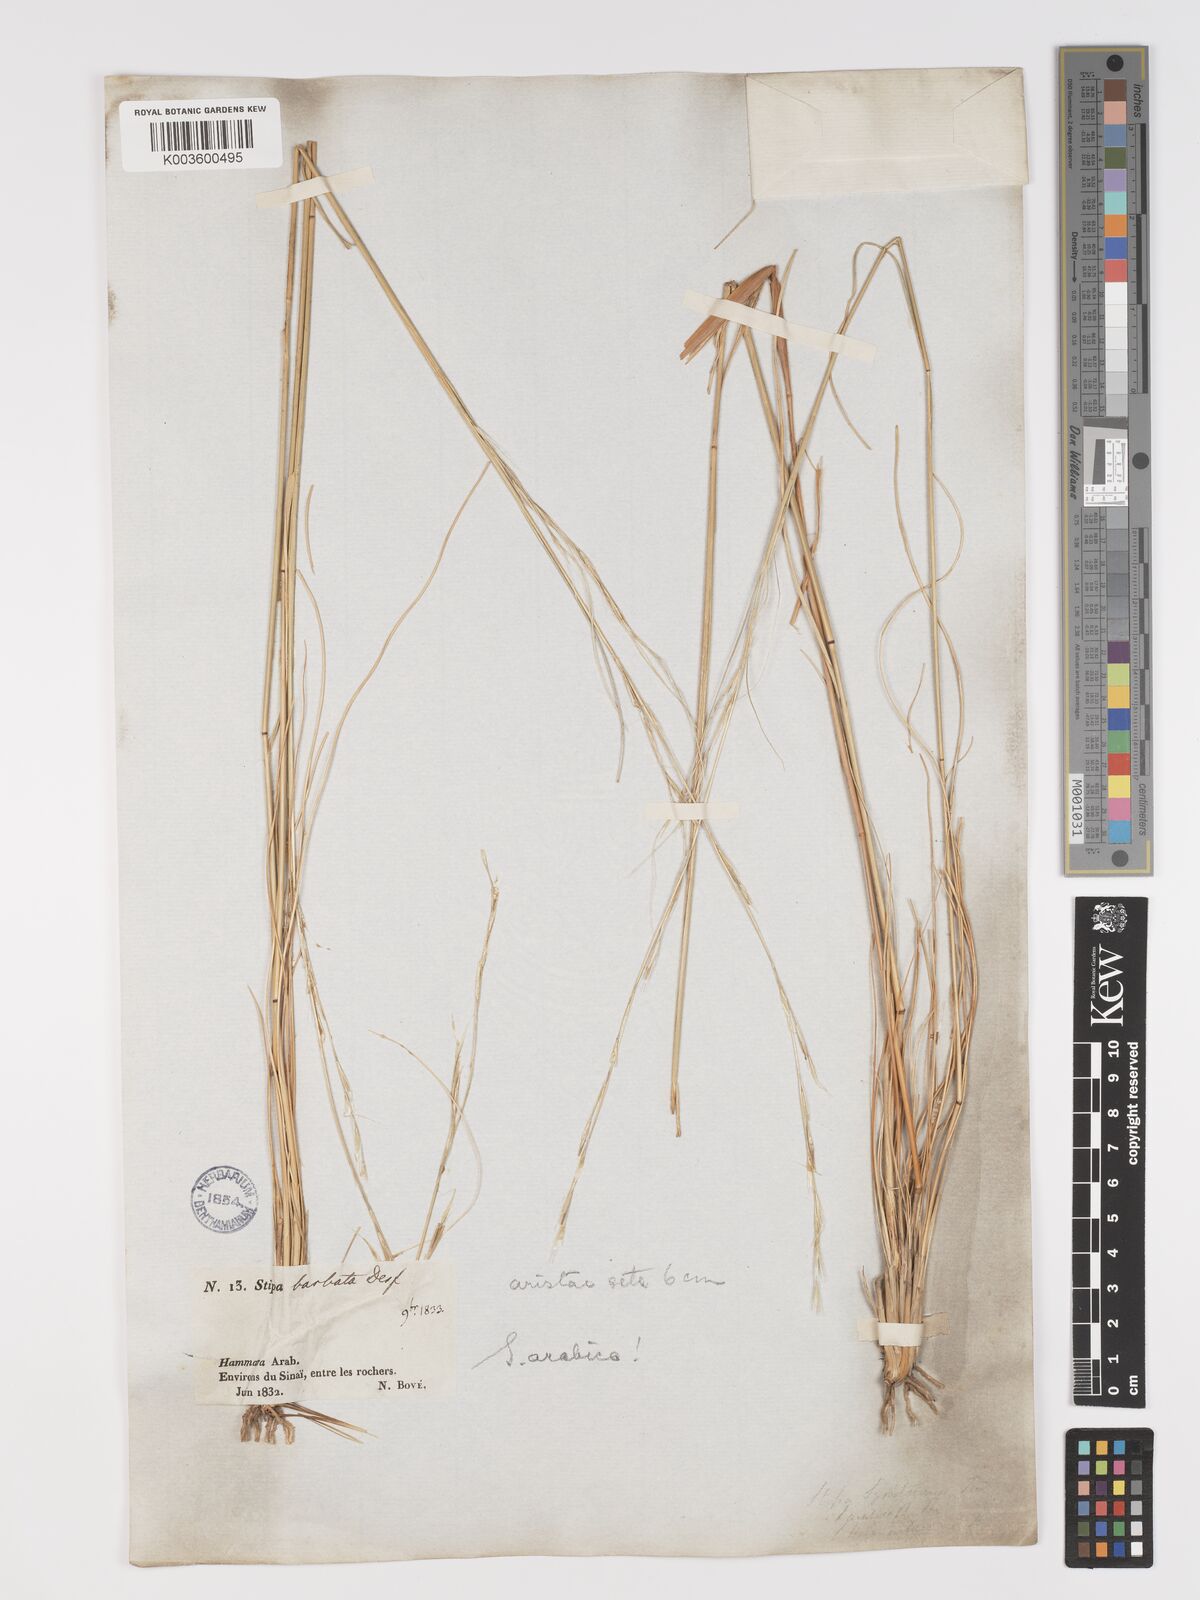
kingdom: Plantae
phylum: Tracheophyta
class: Liliopsida
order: Poales
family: Poaceae
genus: Stipa
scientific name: Stipa arabica
